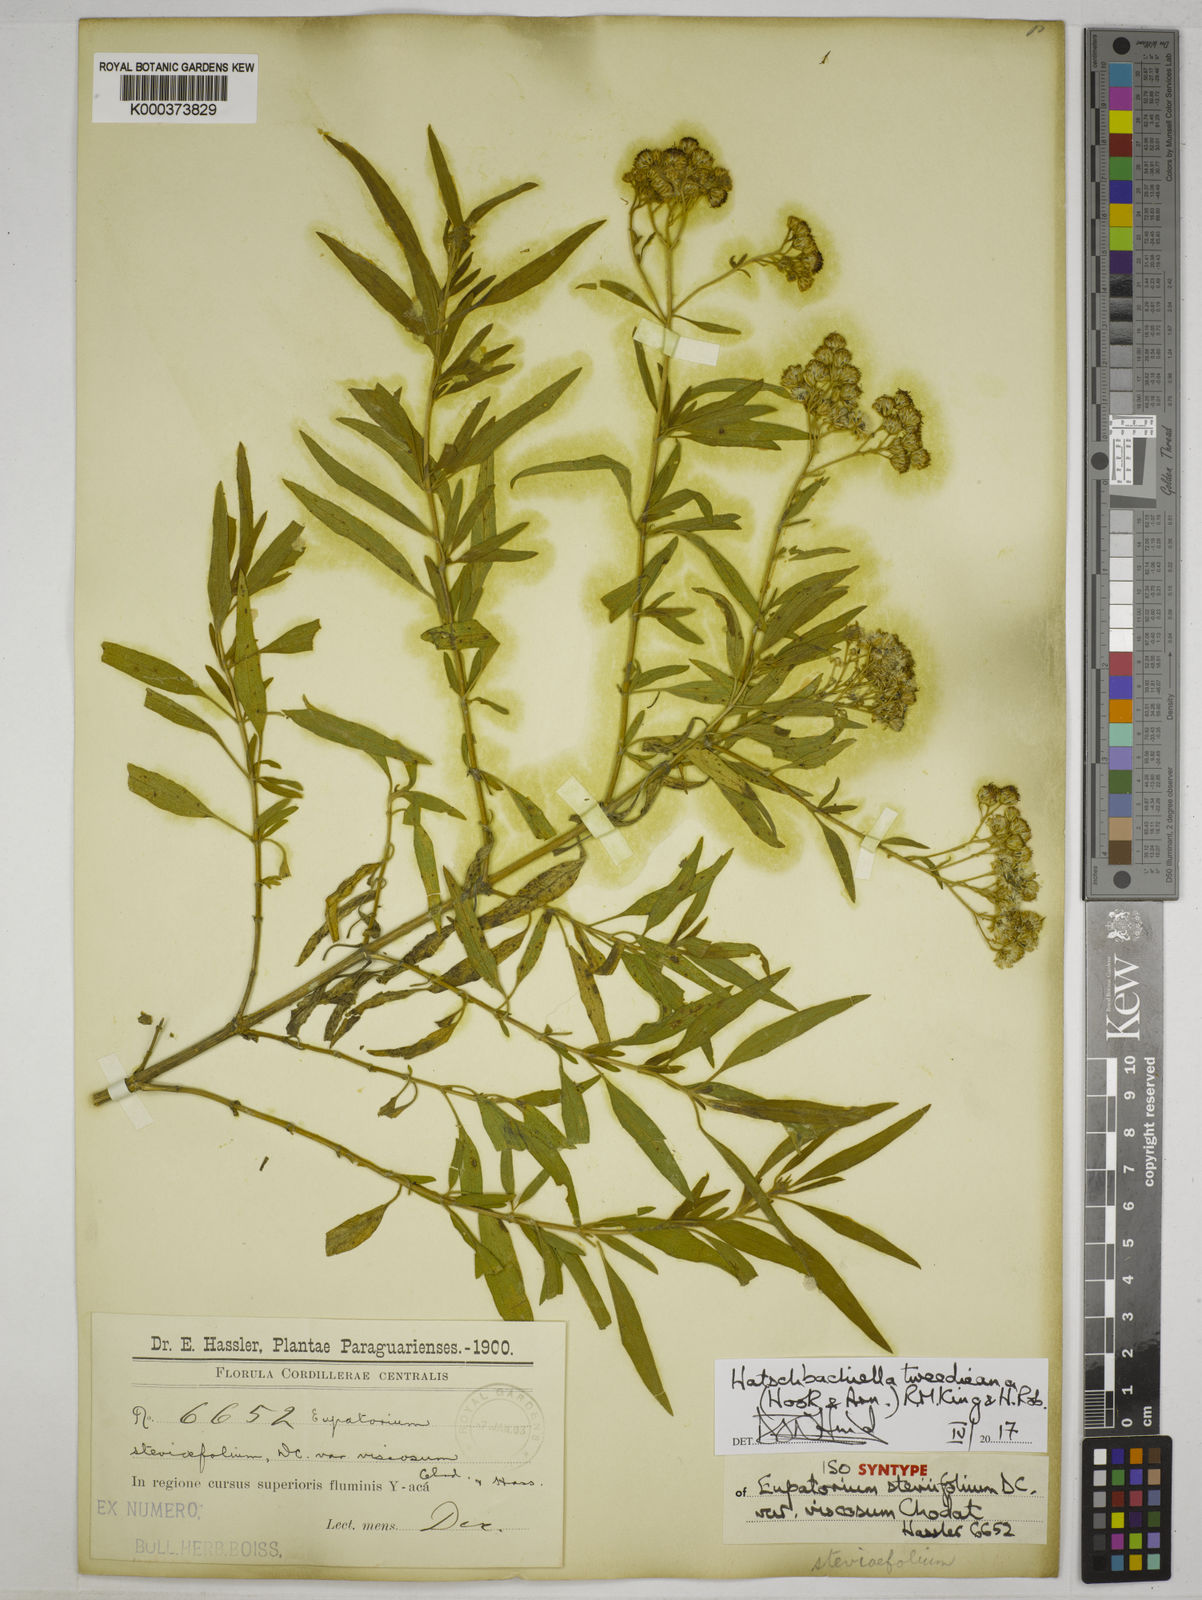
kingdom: Plantae
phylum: Tracheophyta
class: Magnoliopsida
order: Asterales
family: Asteraceae
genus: Hatschbachiella
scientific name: Hatschbachiella tweedieana
